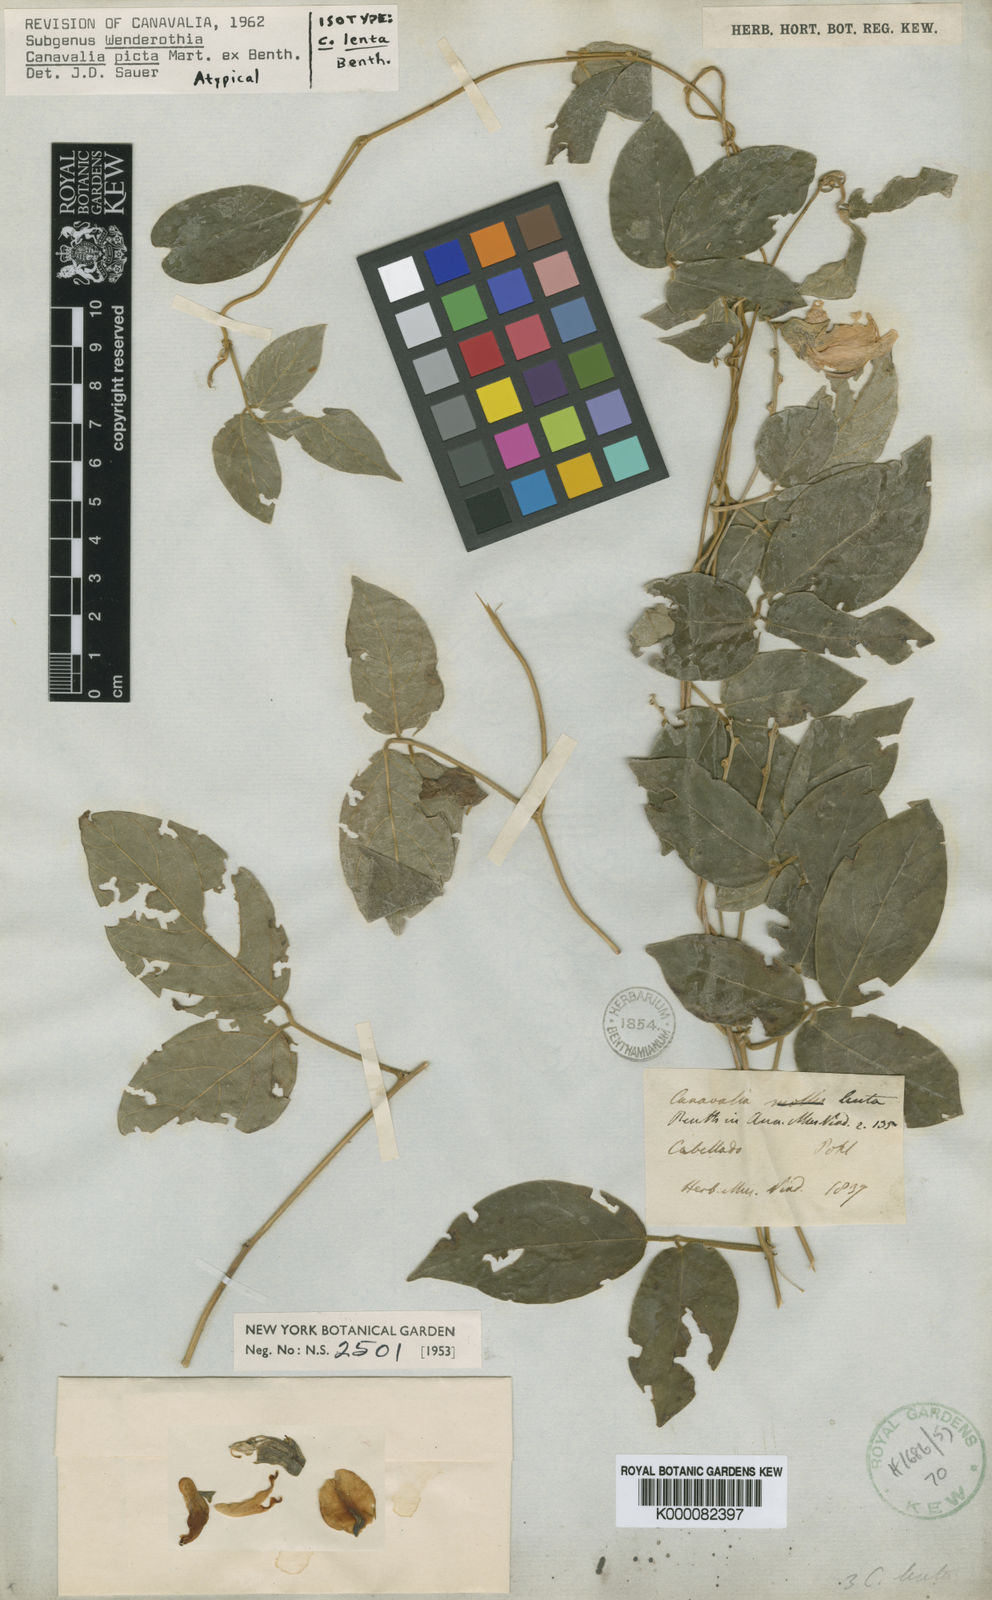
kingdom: Plantae
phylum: Tracheophyta
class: Magnoliopsida
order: Fabales
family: Fabaceae
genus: Canavalia
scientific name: Canavalia
